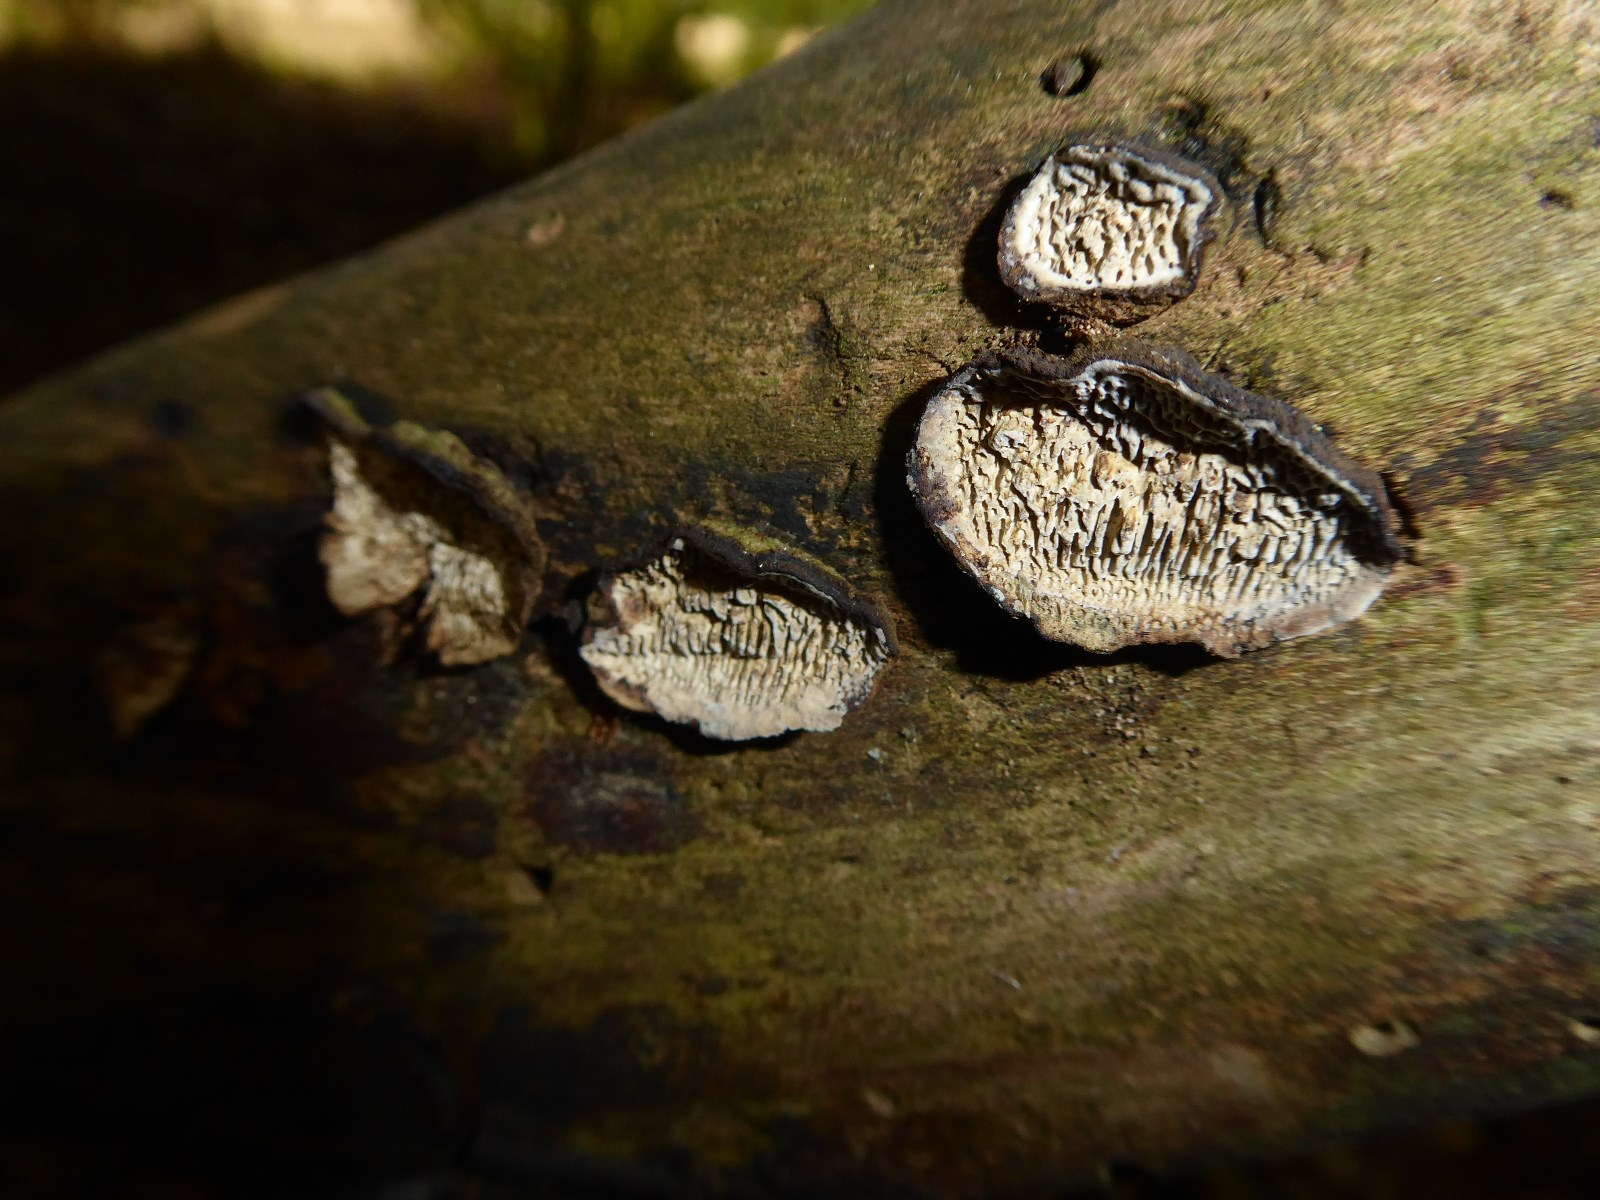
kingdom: Fungi
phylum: Basidiomycota
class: Agaricomycetes
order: Polyporales
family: Polyporaceae
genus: Podofomes
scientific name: Podofomes mollis
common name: blød begporesvamp
